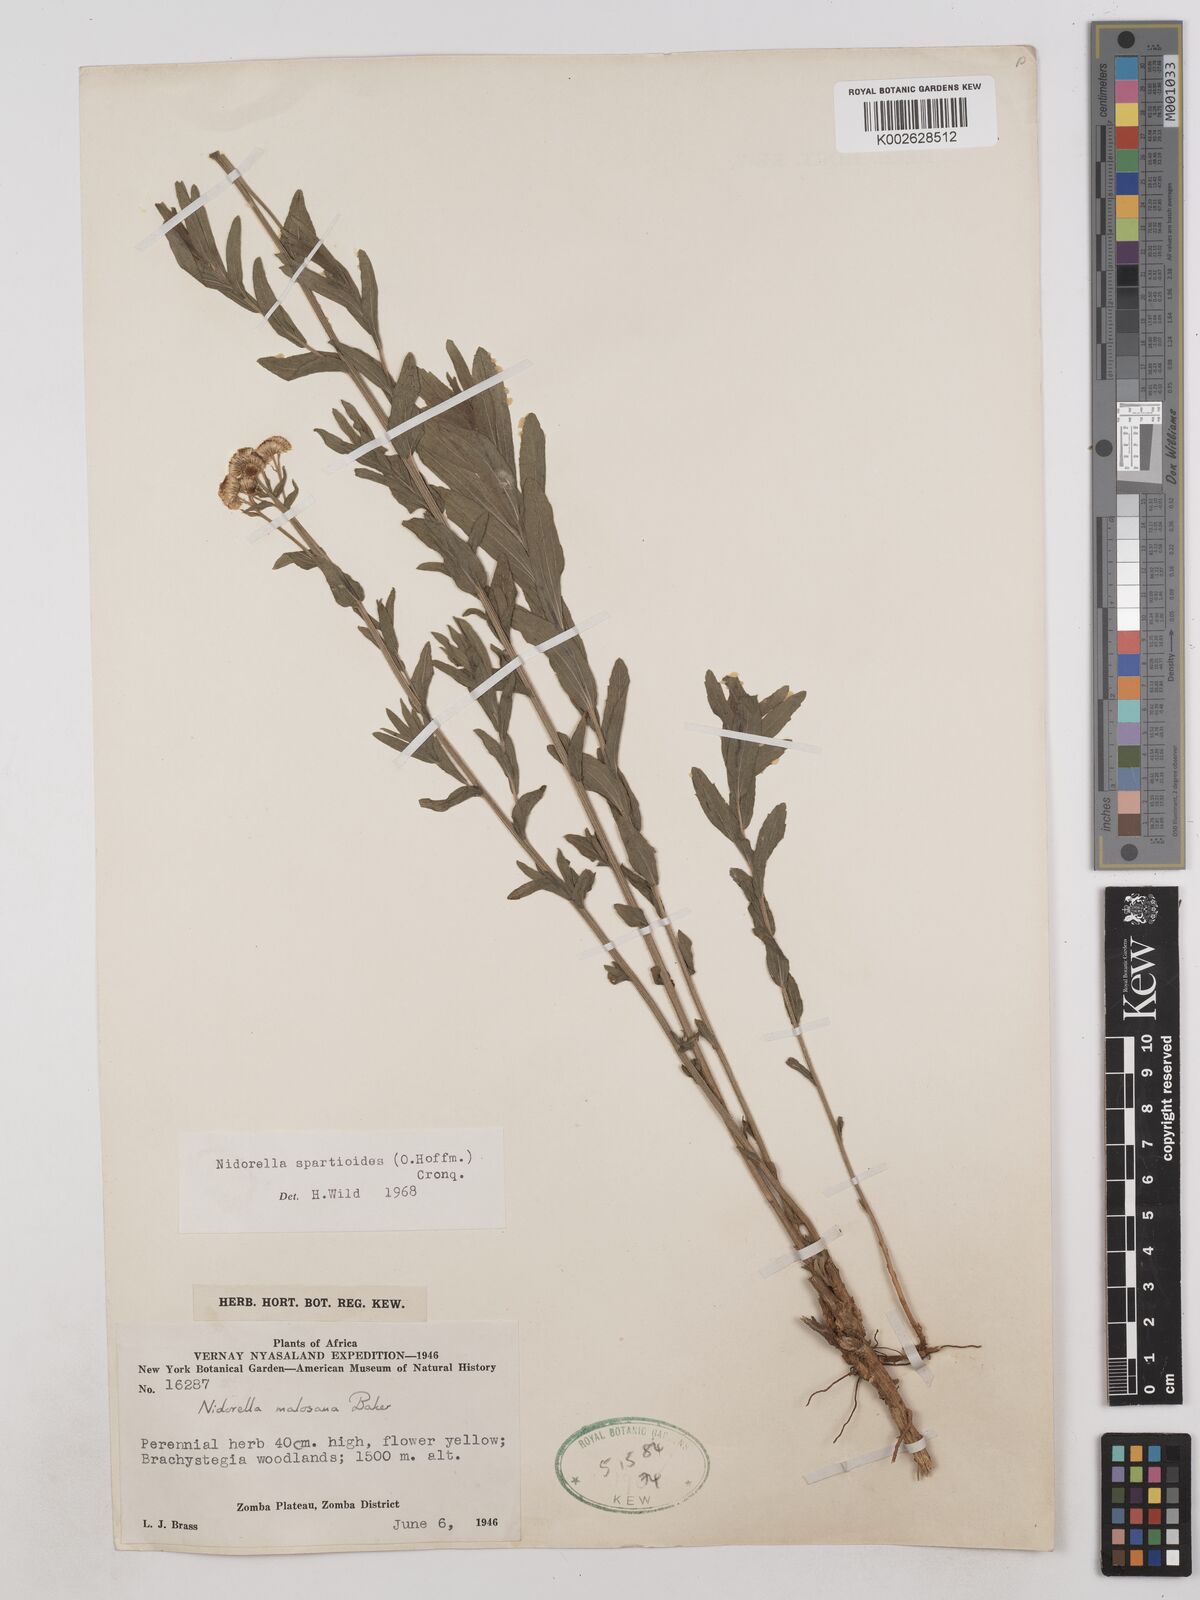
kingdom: Plantae
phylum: Tracheophyta
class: Magnoliopsida
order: Asterales
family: Asteraceae
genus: Nidorella
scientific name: Nidorella spartioides
